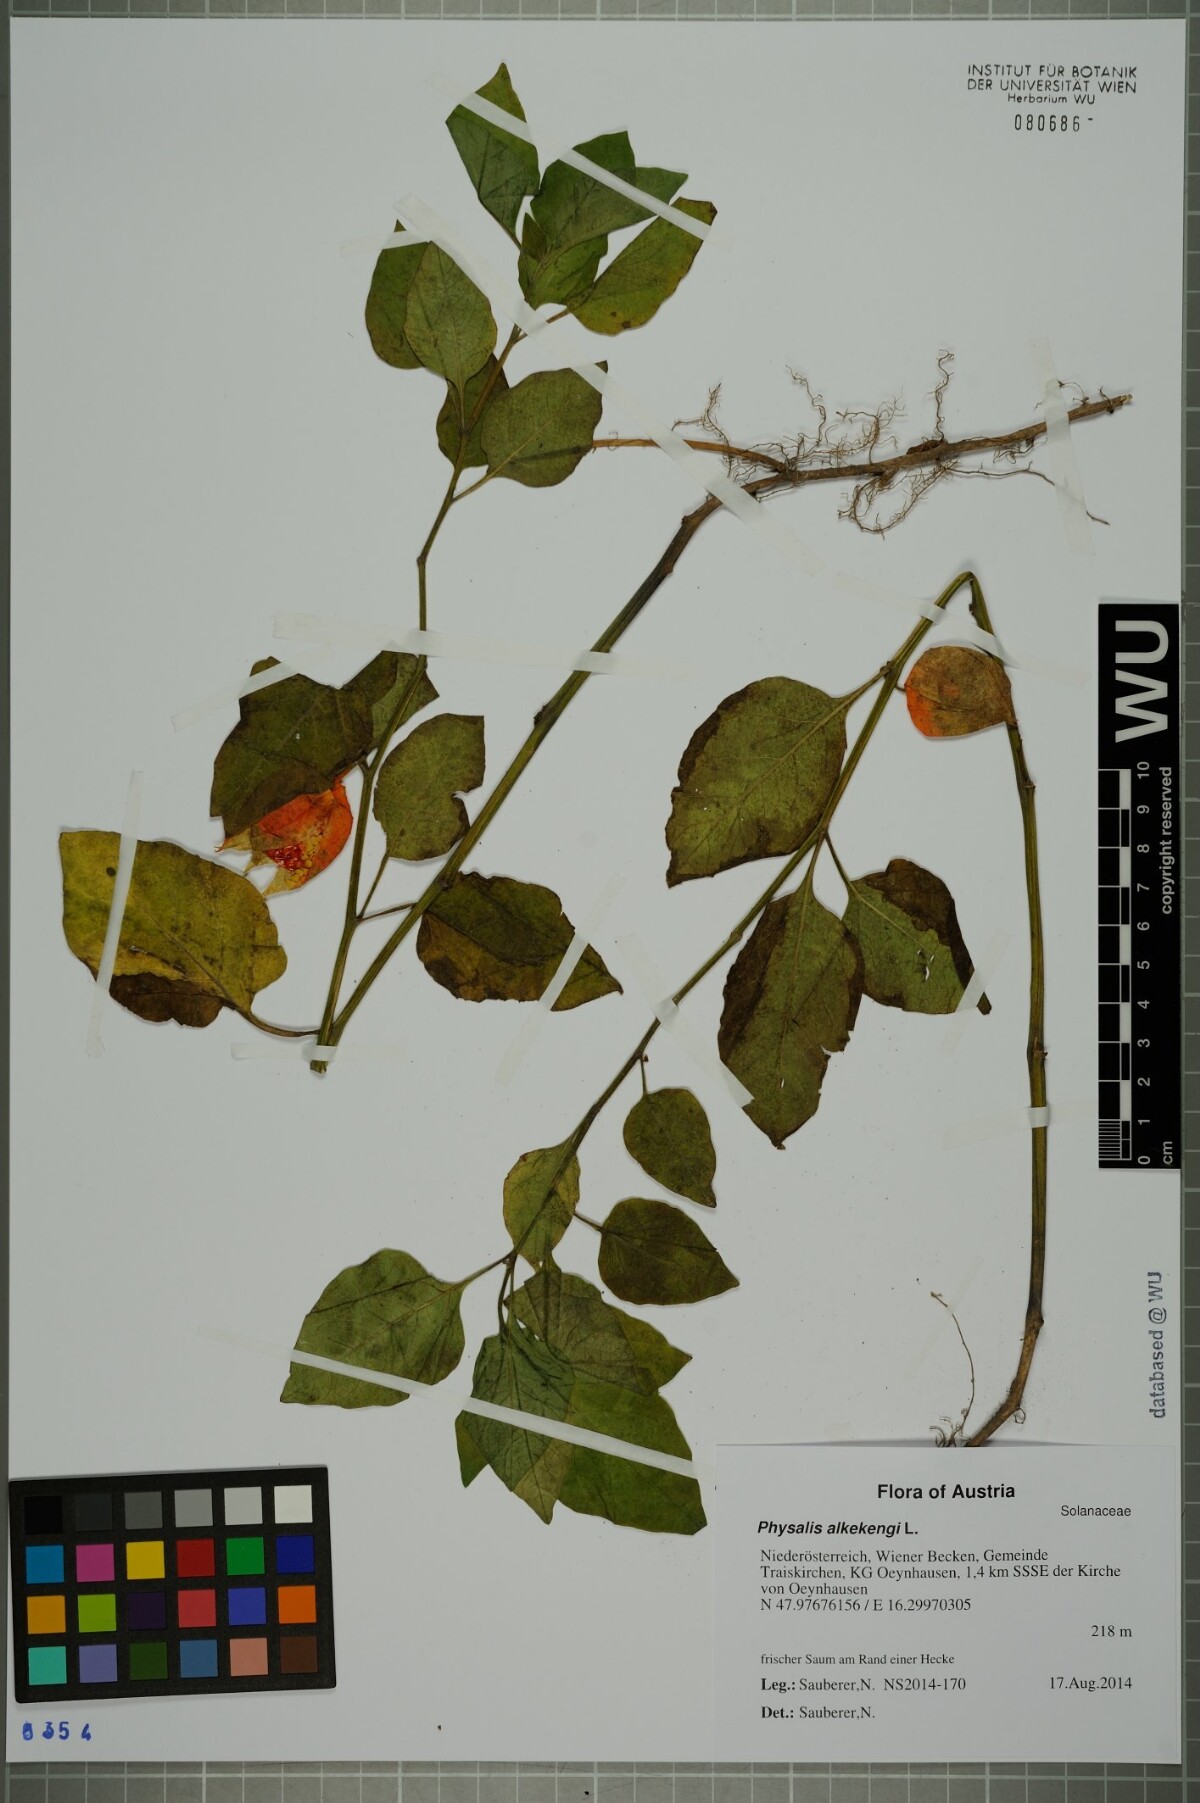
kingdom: Plantae
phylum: Tracheophyta
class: Magnoliopsida
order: Solanales
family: Solanaceae
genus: Alkekengi
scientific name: Alkekengi officinarum
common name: Japanese-lantern
